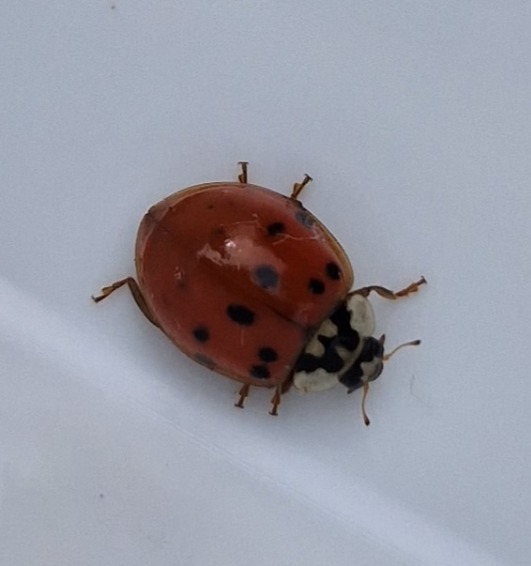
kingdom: Animalia
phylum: Arthropoda
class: Insecta
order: Coleoptera
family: Coccinellidae
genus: Harmonia
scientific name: Harmonia axyridis
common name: Harlekinmariehøne
